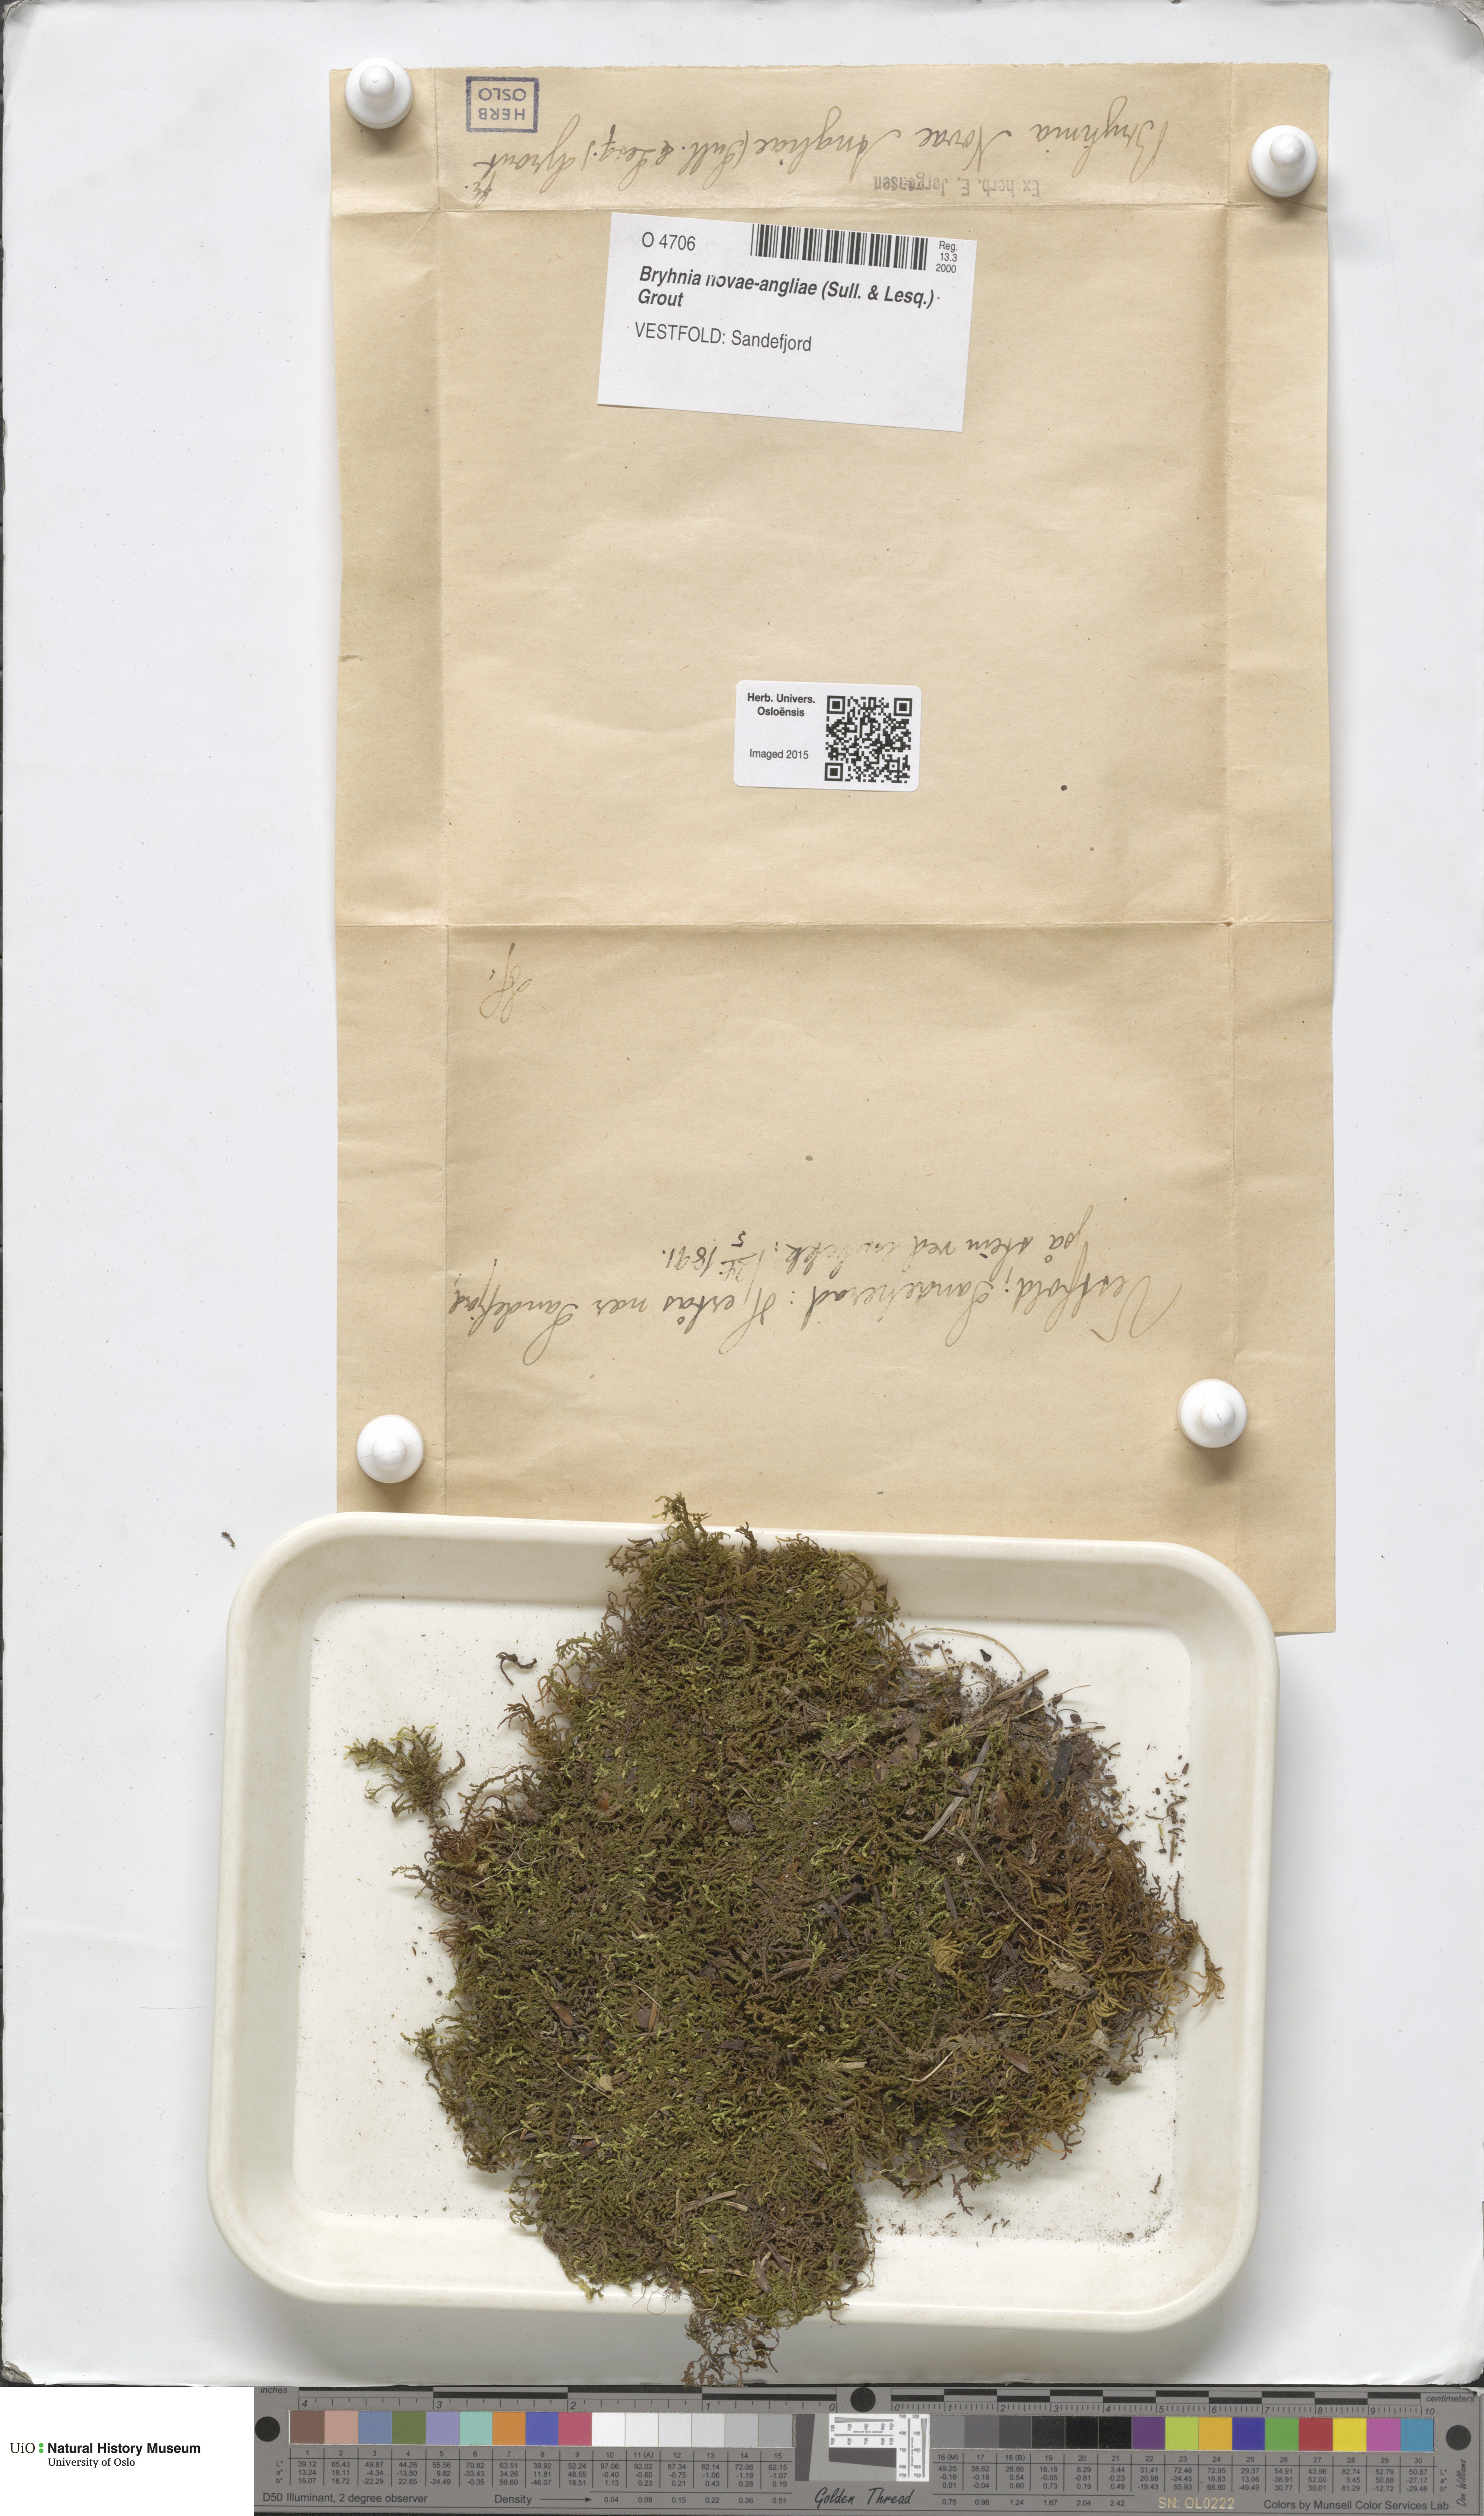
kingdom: Plantae
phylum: Bryophyta
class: Bryopsida
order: Hypnales
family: Brachytheciaceae
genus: Brachythecium
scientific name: Brachythecium novae-angliae
